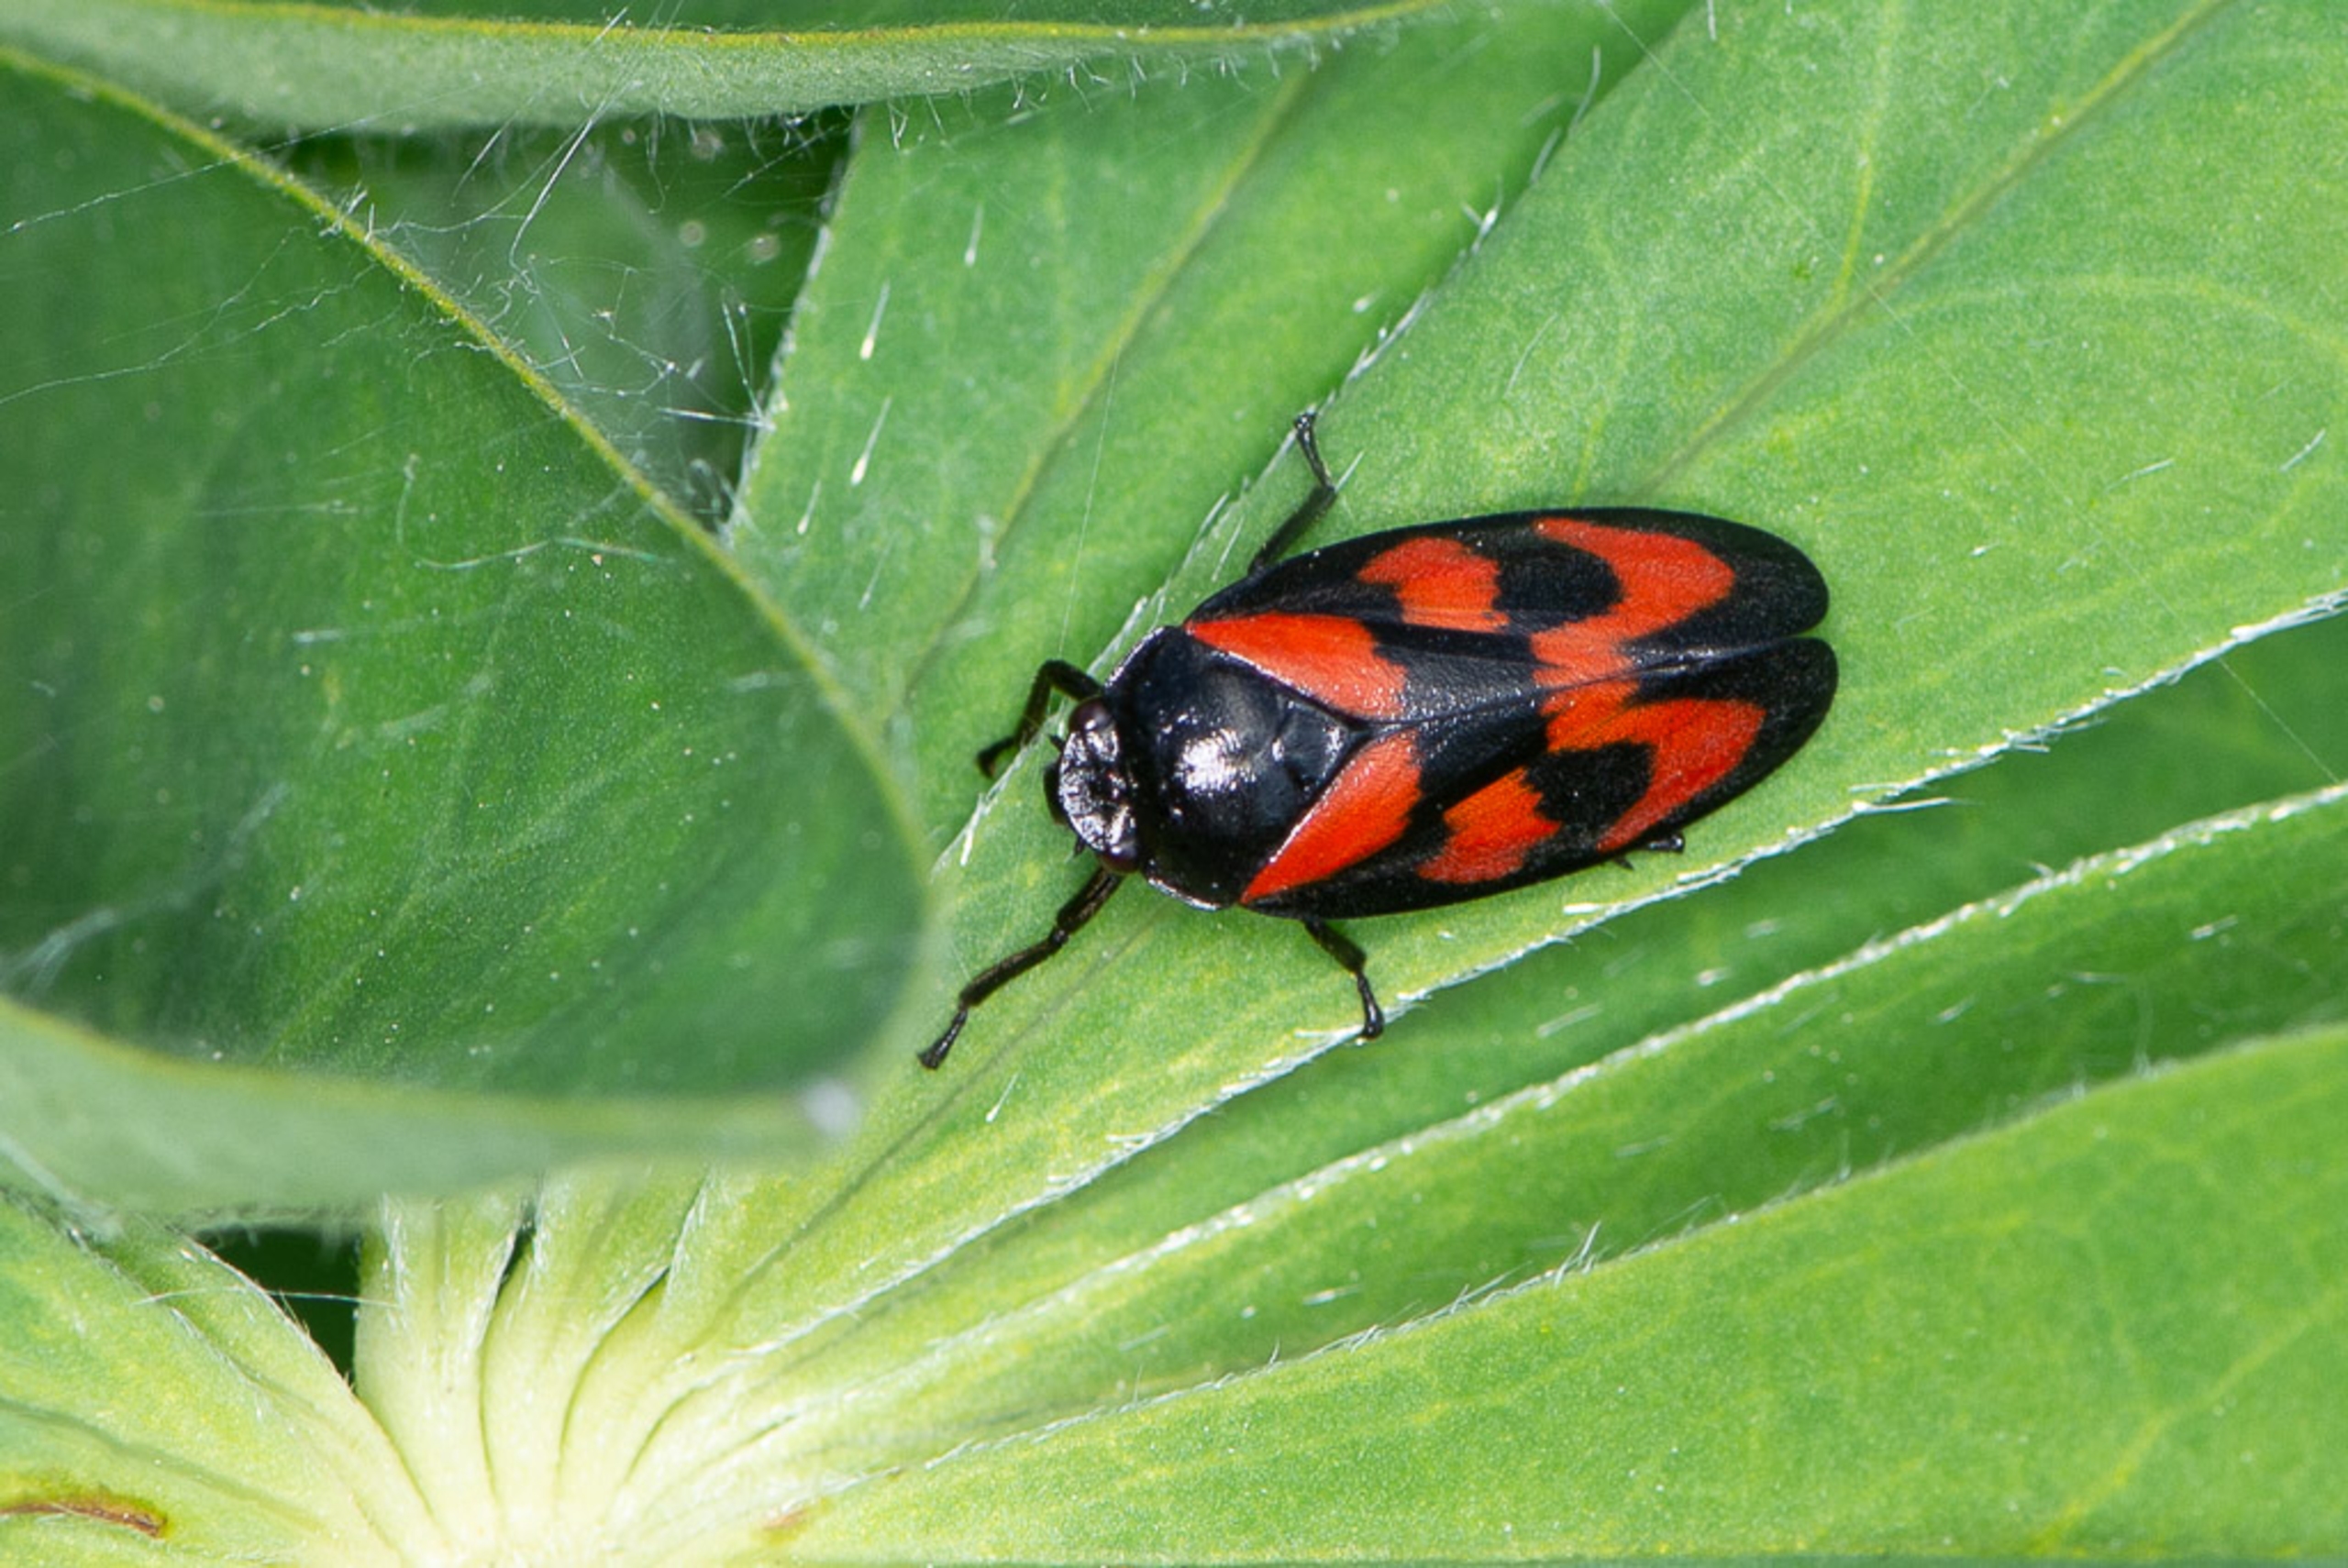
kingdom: Animalia
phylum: Arthropoda
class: Insecta
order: Hemiptera
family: Cercopidae
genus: Cercopis
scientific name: Cercopis vulnerata
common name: Blodcikade
